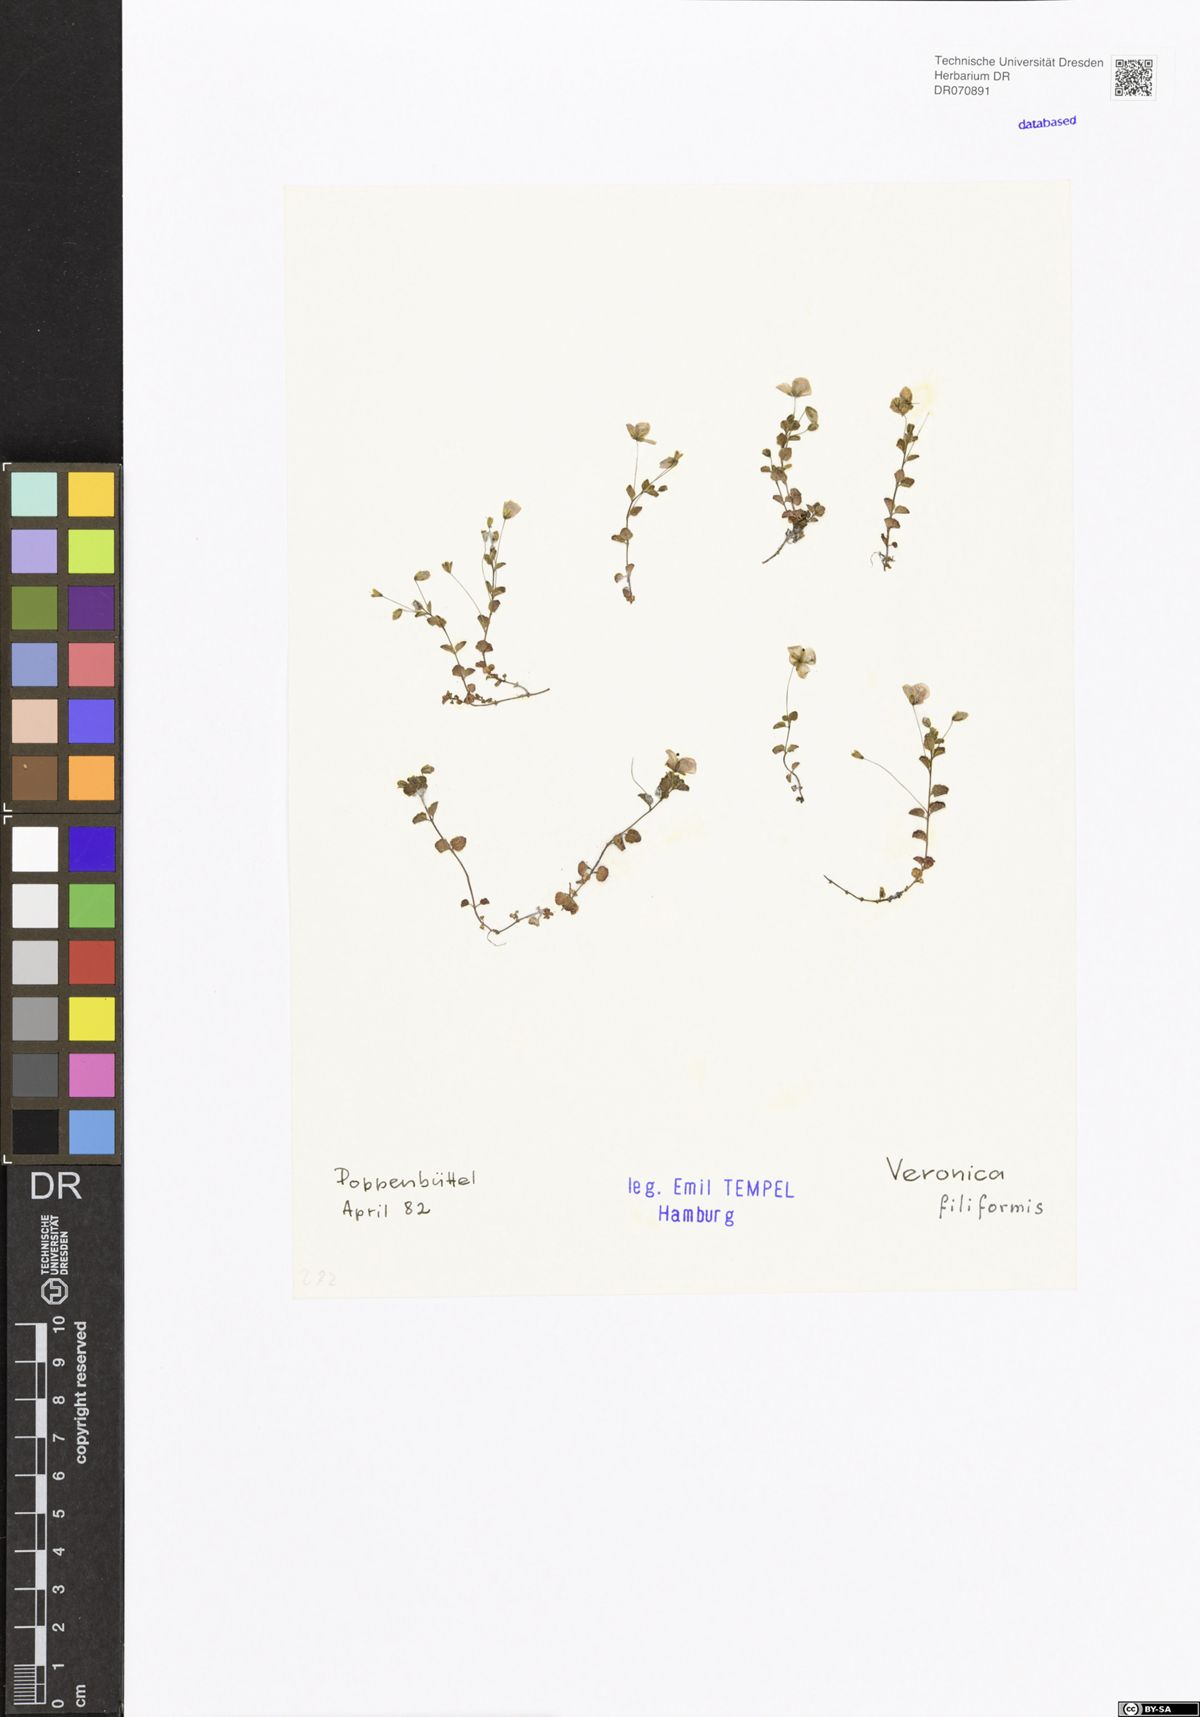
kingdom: Plantae
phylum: Tracheophyta
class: Magnoliopsida
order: Lamiales
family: Plantaginaceae
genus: Veronica
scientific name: Veronica filiformis
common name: Slender speedwell
